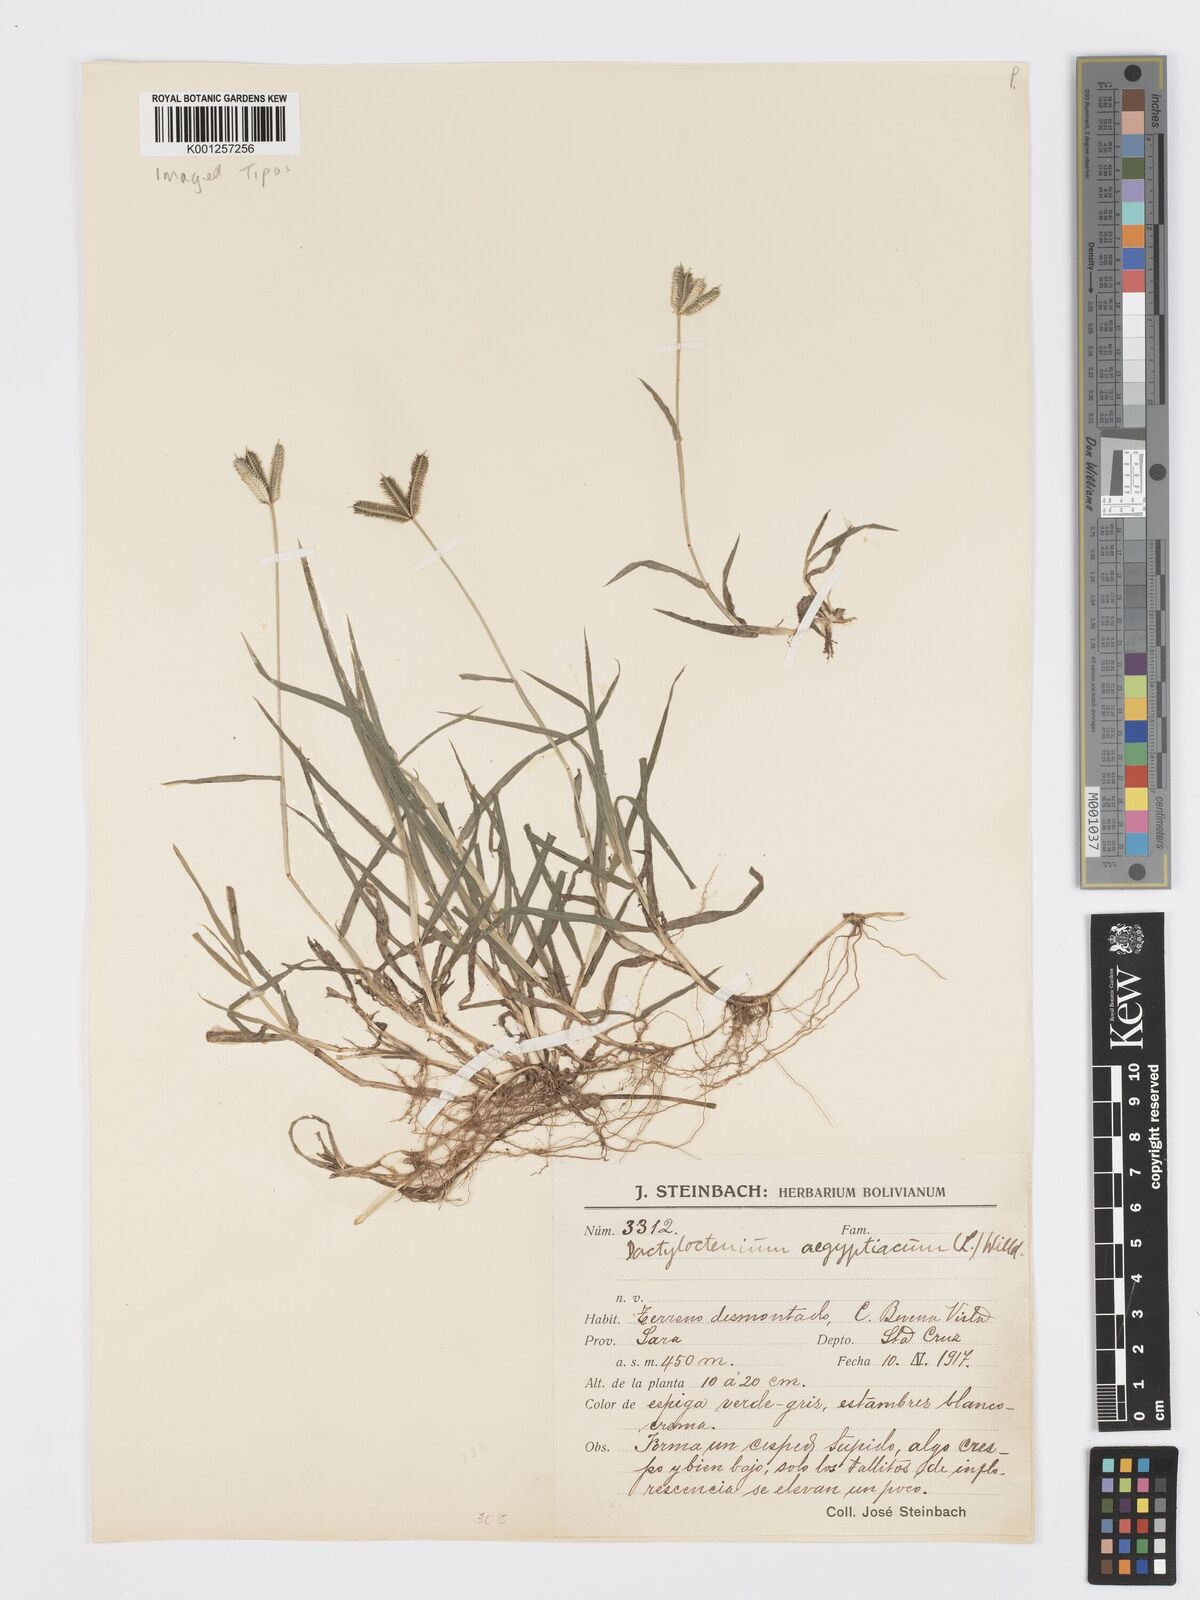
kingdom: Plantae
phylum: Tracheophyta
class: Liliopsida
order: Poales
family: Poaceae
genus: Dactyloctenium
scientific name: Dactyloctenium aegyptium
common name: Egyptian grass
